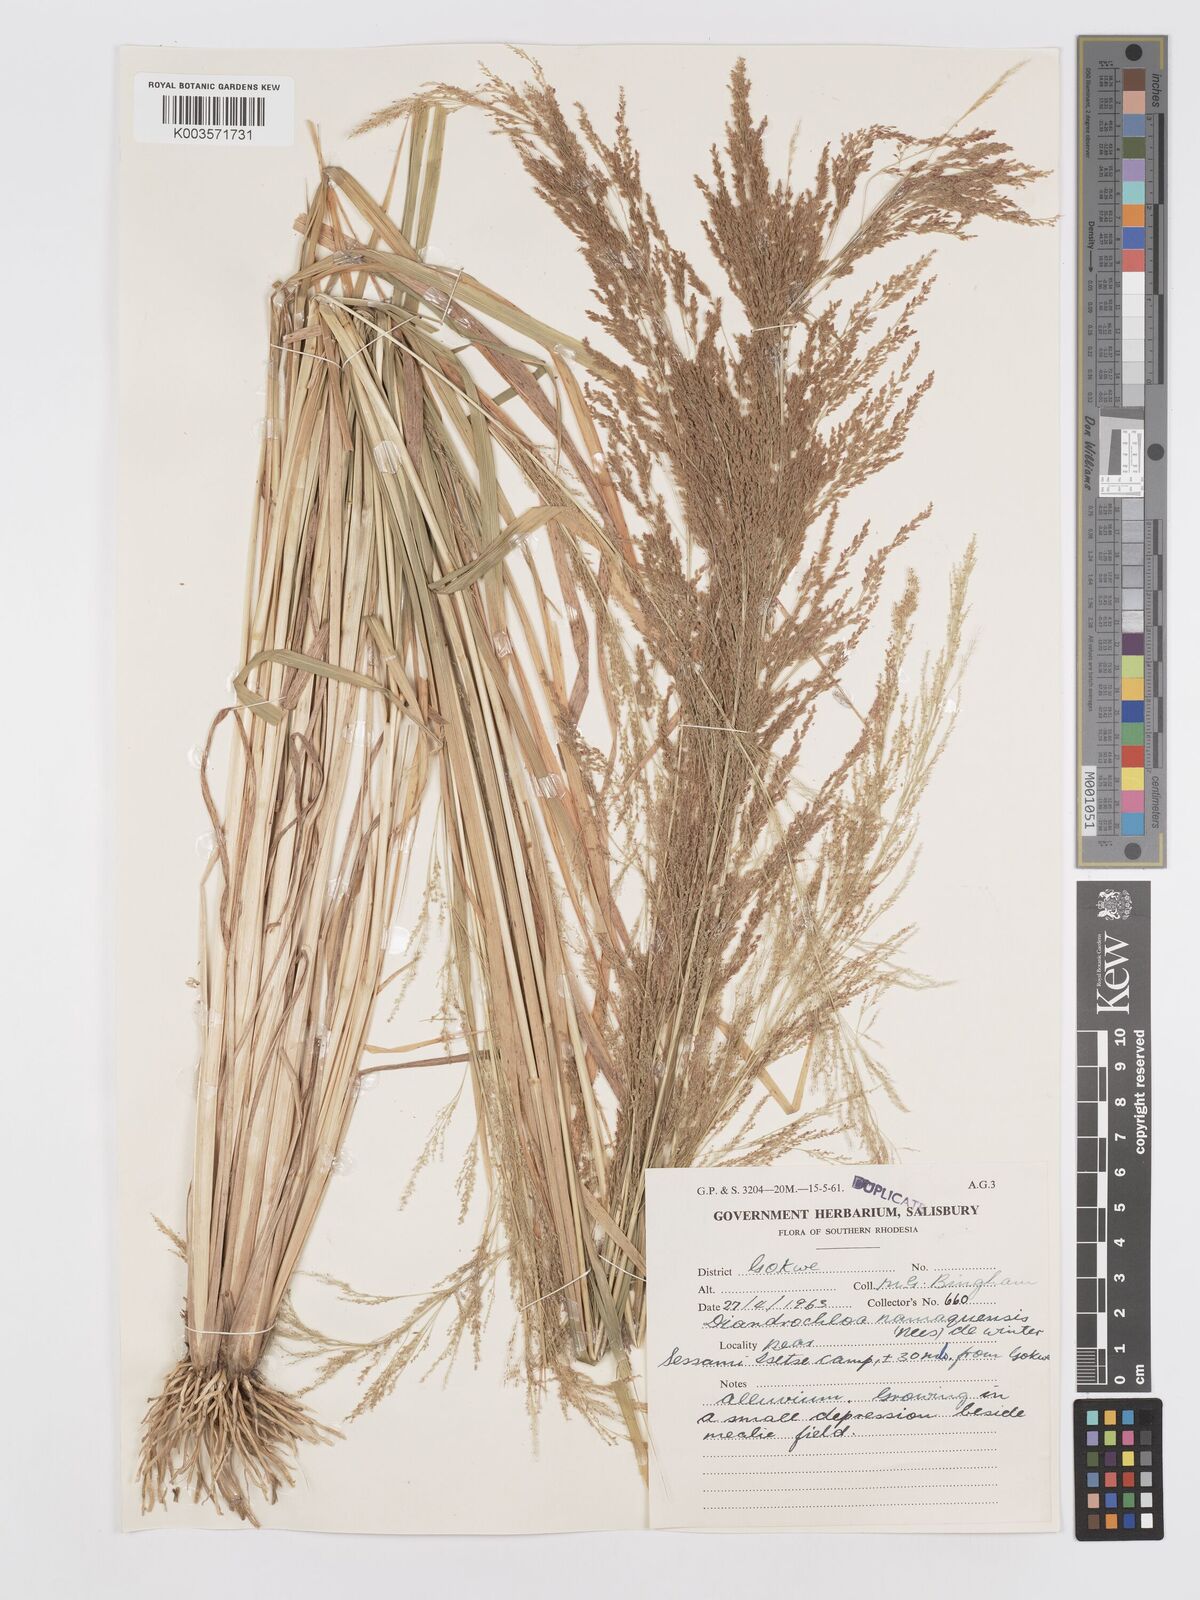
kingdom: Plantae
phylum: Tracheophyta
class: Liliopsida
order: Poales
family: Poaceae
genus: Eragrostis
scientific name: Eragrostis japonica
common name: Pond lovegrass
